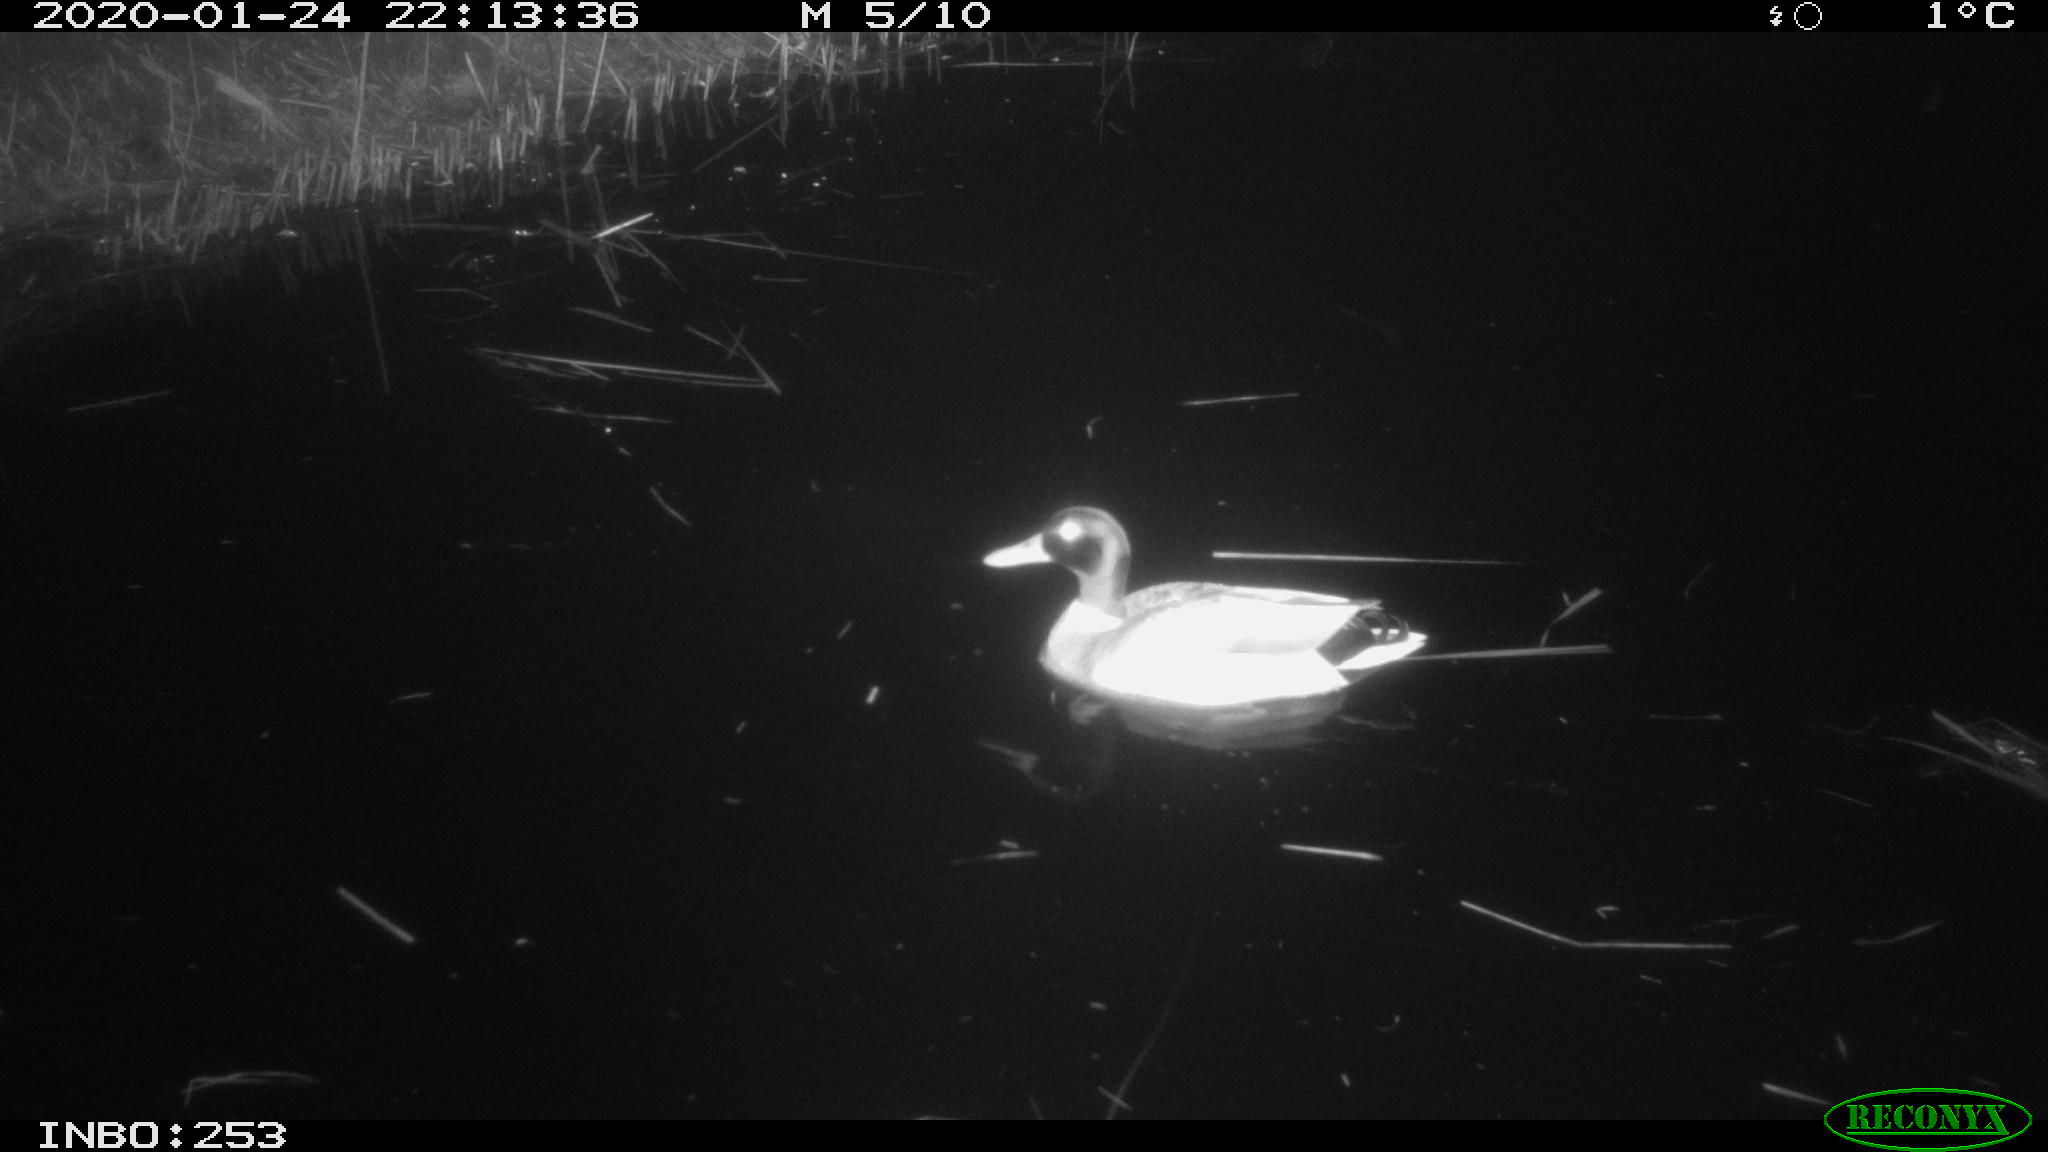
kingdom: Animalia
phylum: Chordata
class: Aves
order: Anseriformes
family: Anatidae
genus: Anas
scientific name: Anas platyrhynchos
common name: Mallard
